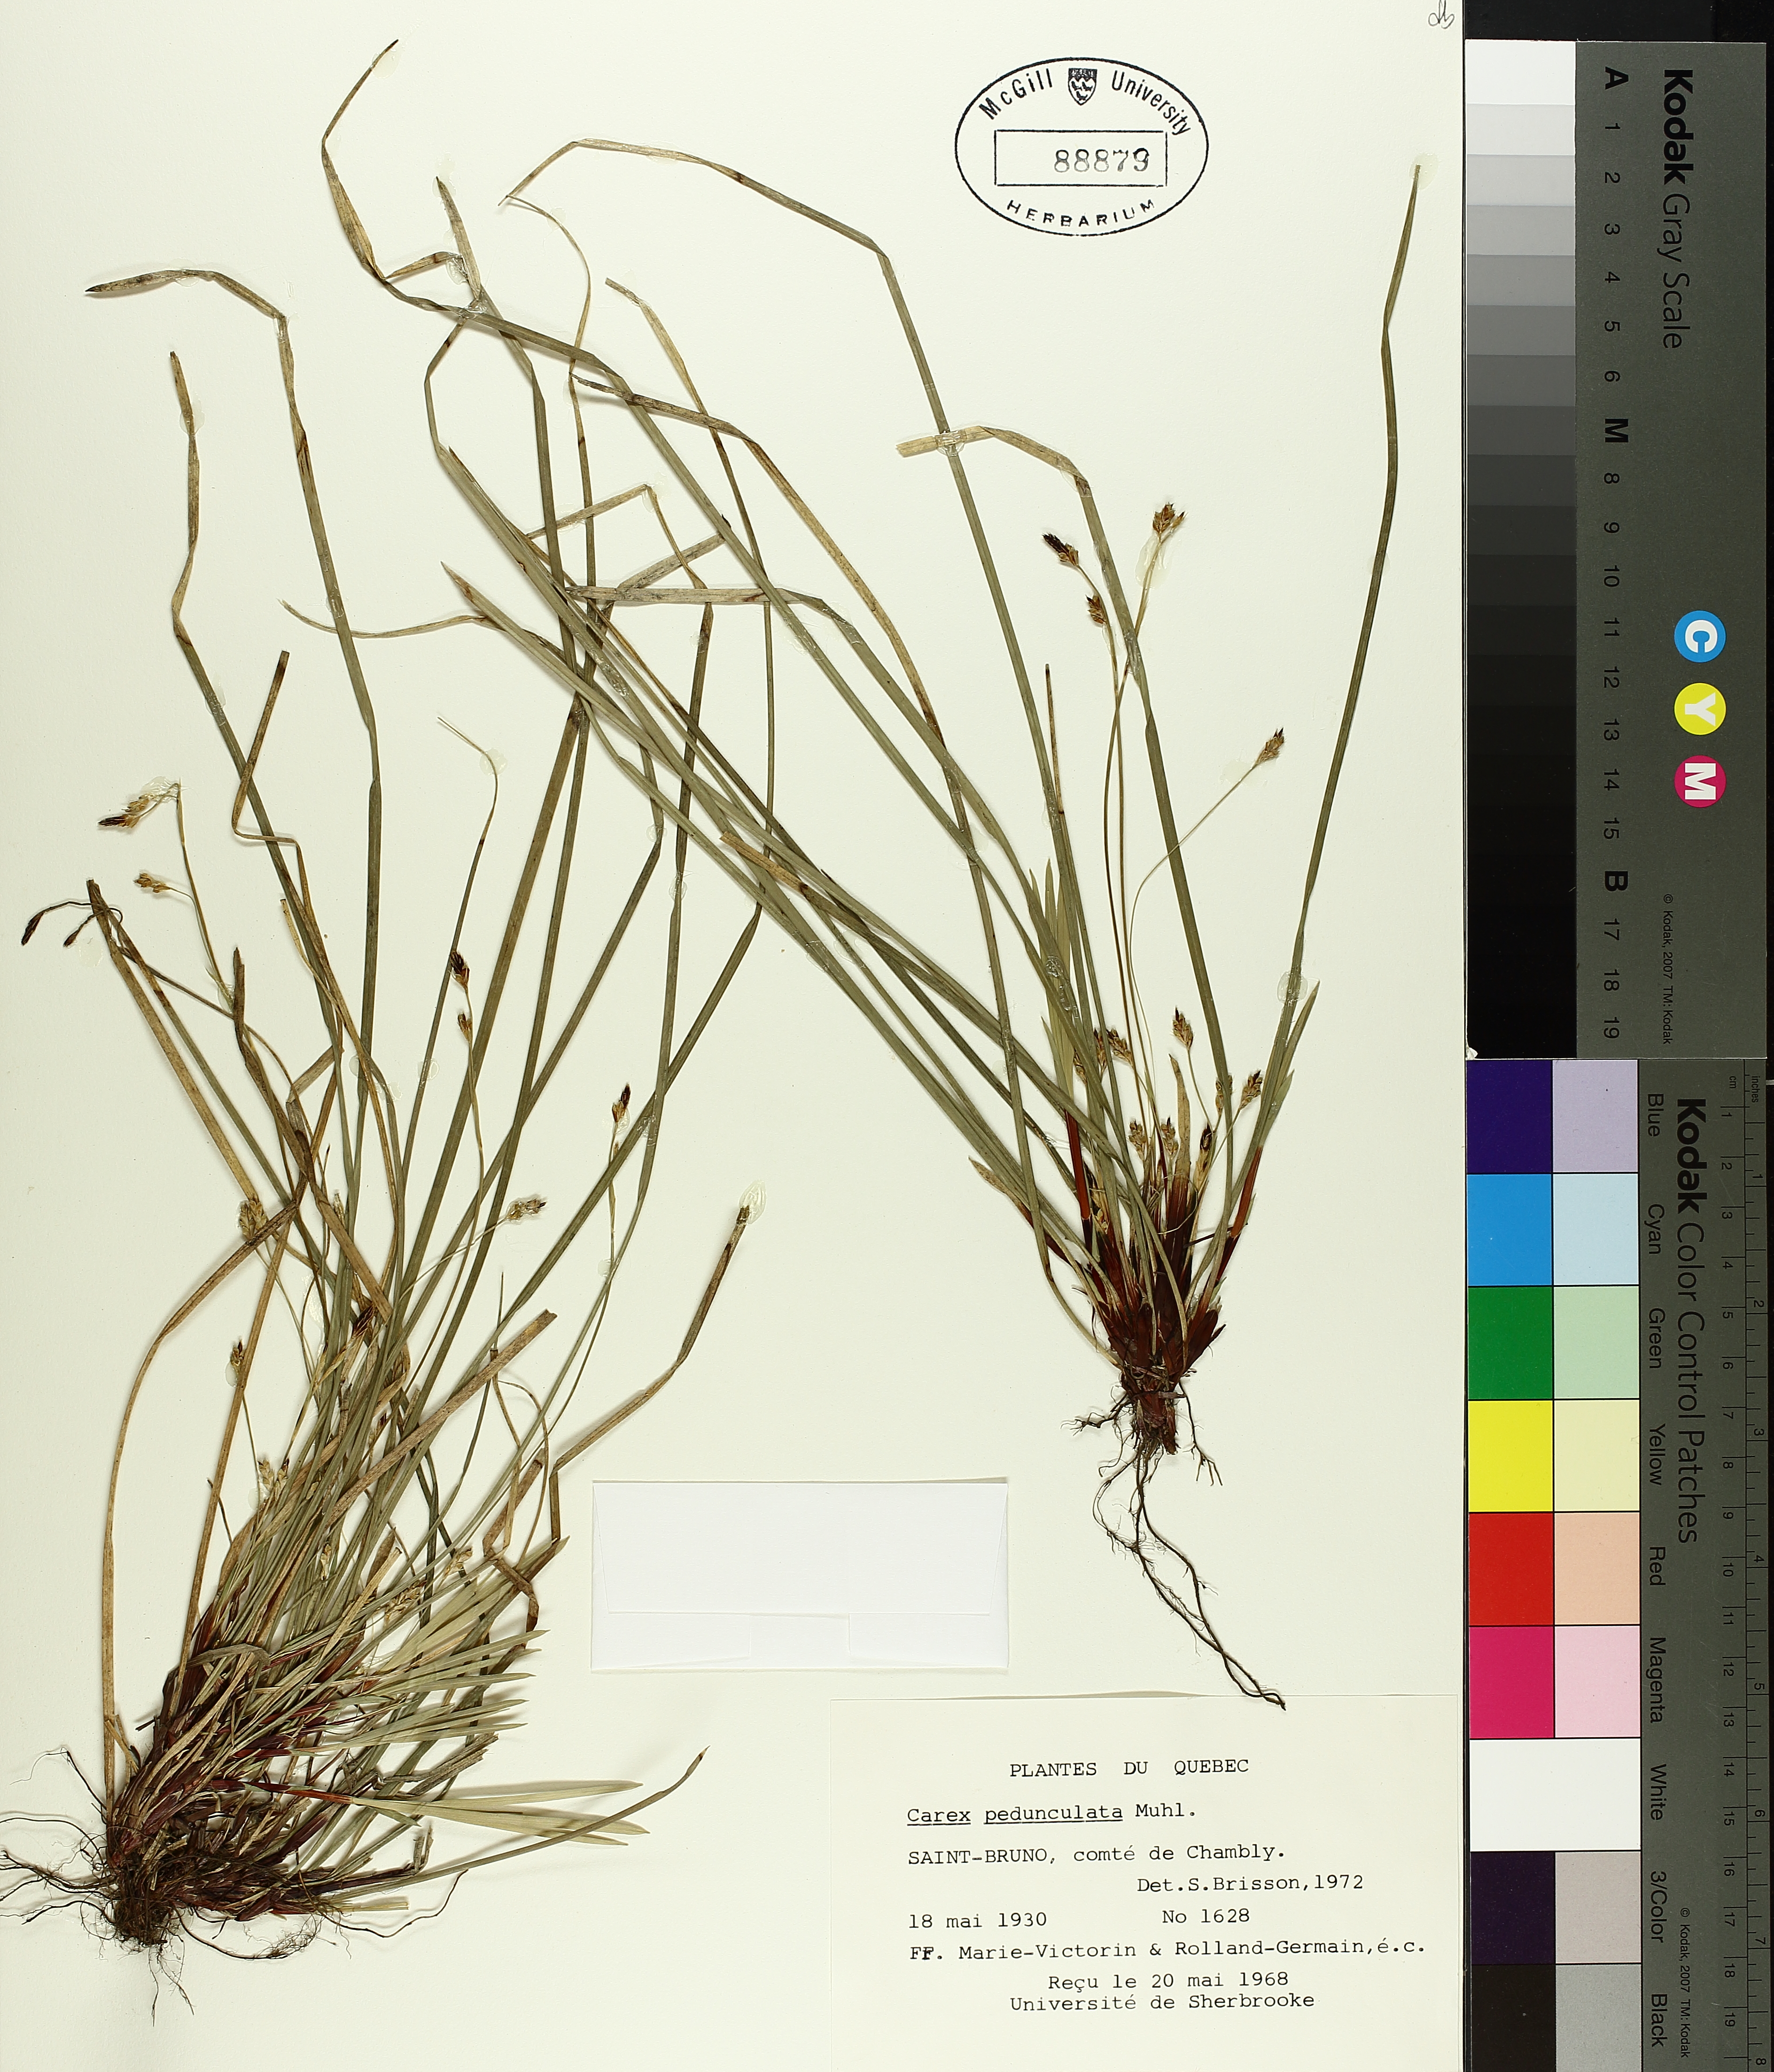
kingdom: Plantae
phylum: Tracheophyta
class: Liliopsida
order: Poales
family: Cyperaceae
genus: Carex
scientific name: Carex pedunculata
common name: Pedunculate sedge
